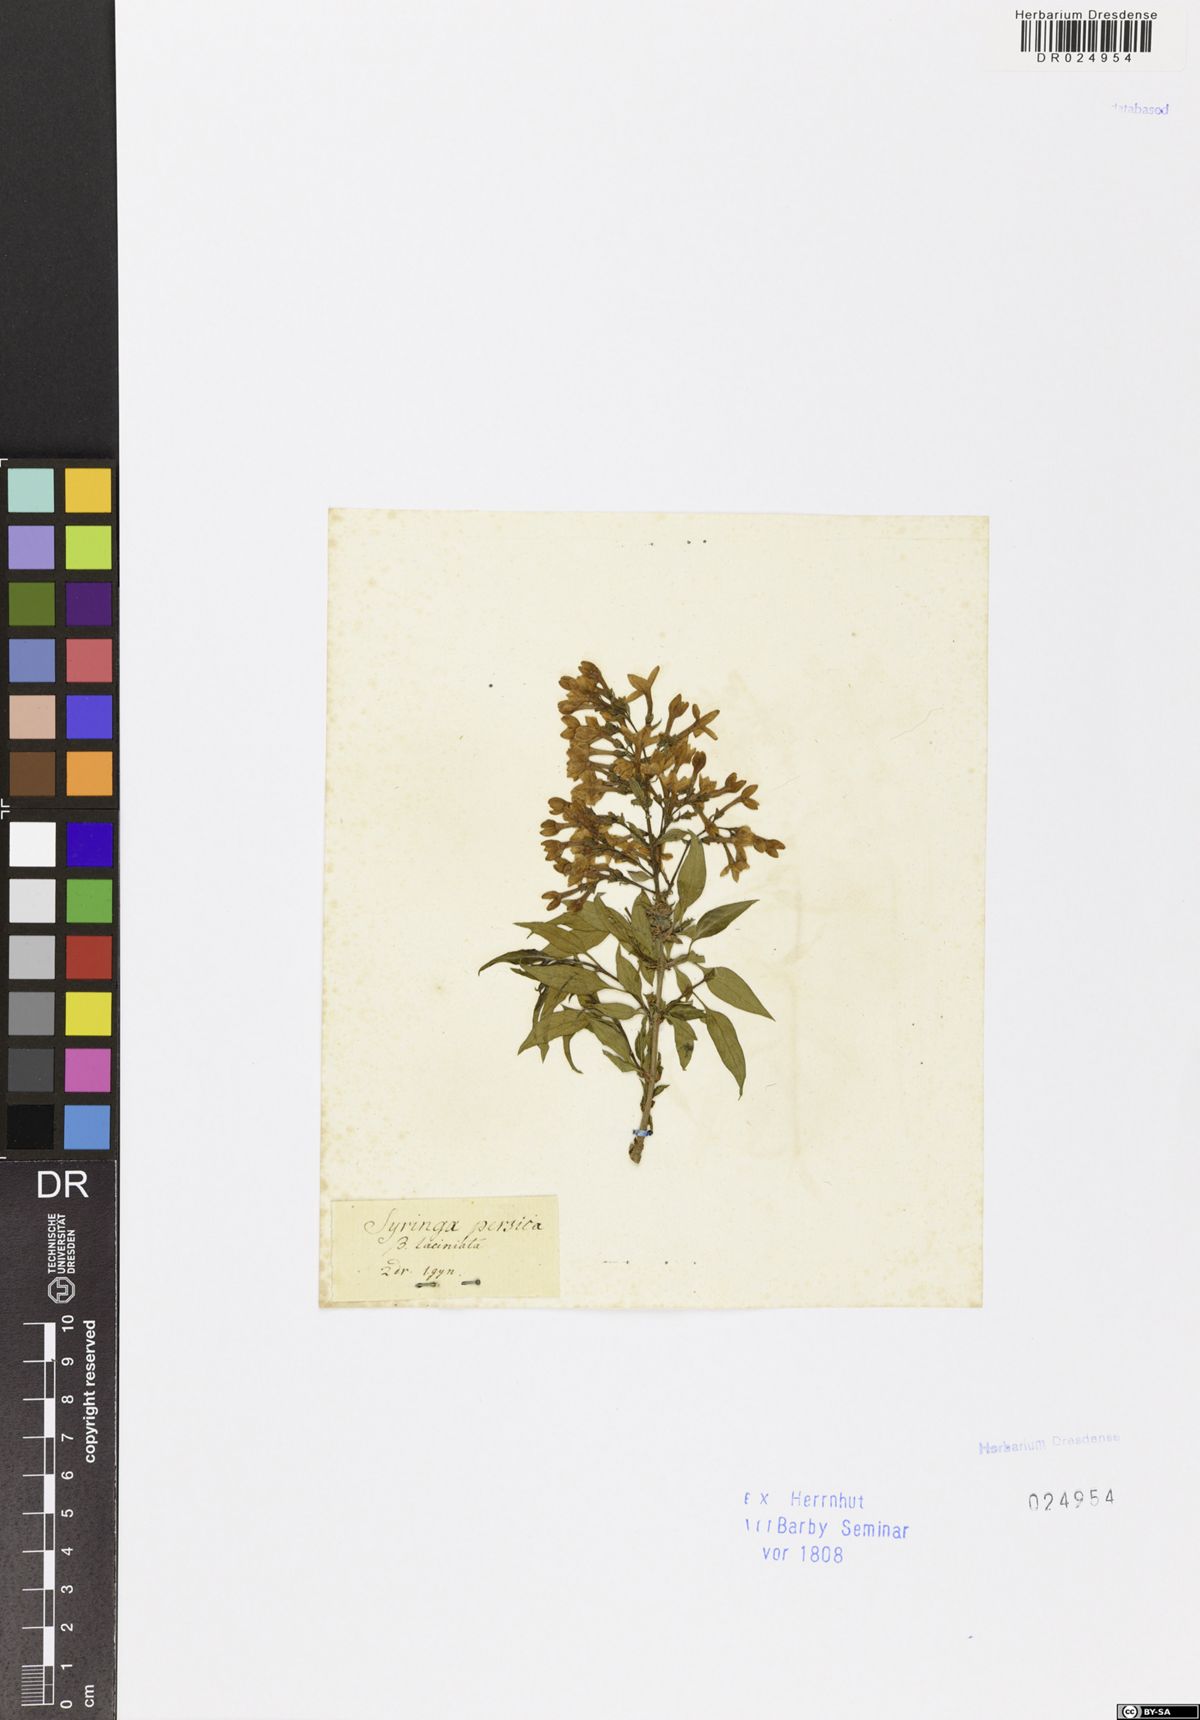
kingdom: Plantae
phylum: Tracheophyta
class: Magnoliopsida
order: Lamiales
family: Oleaceae
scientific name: Oleaceae
